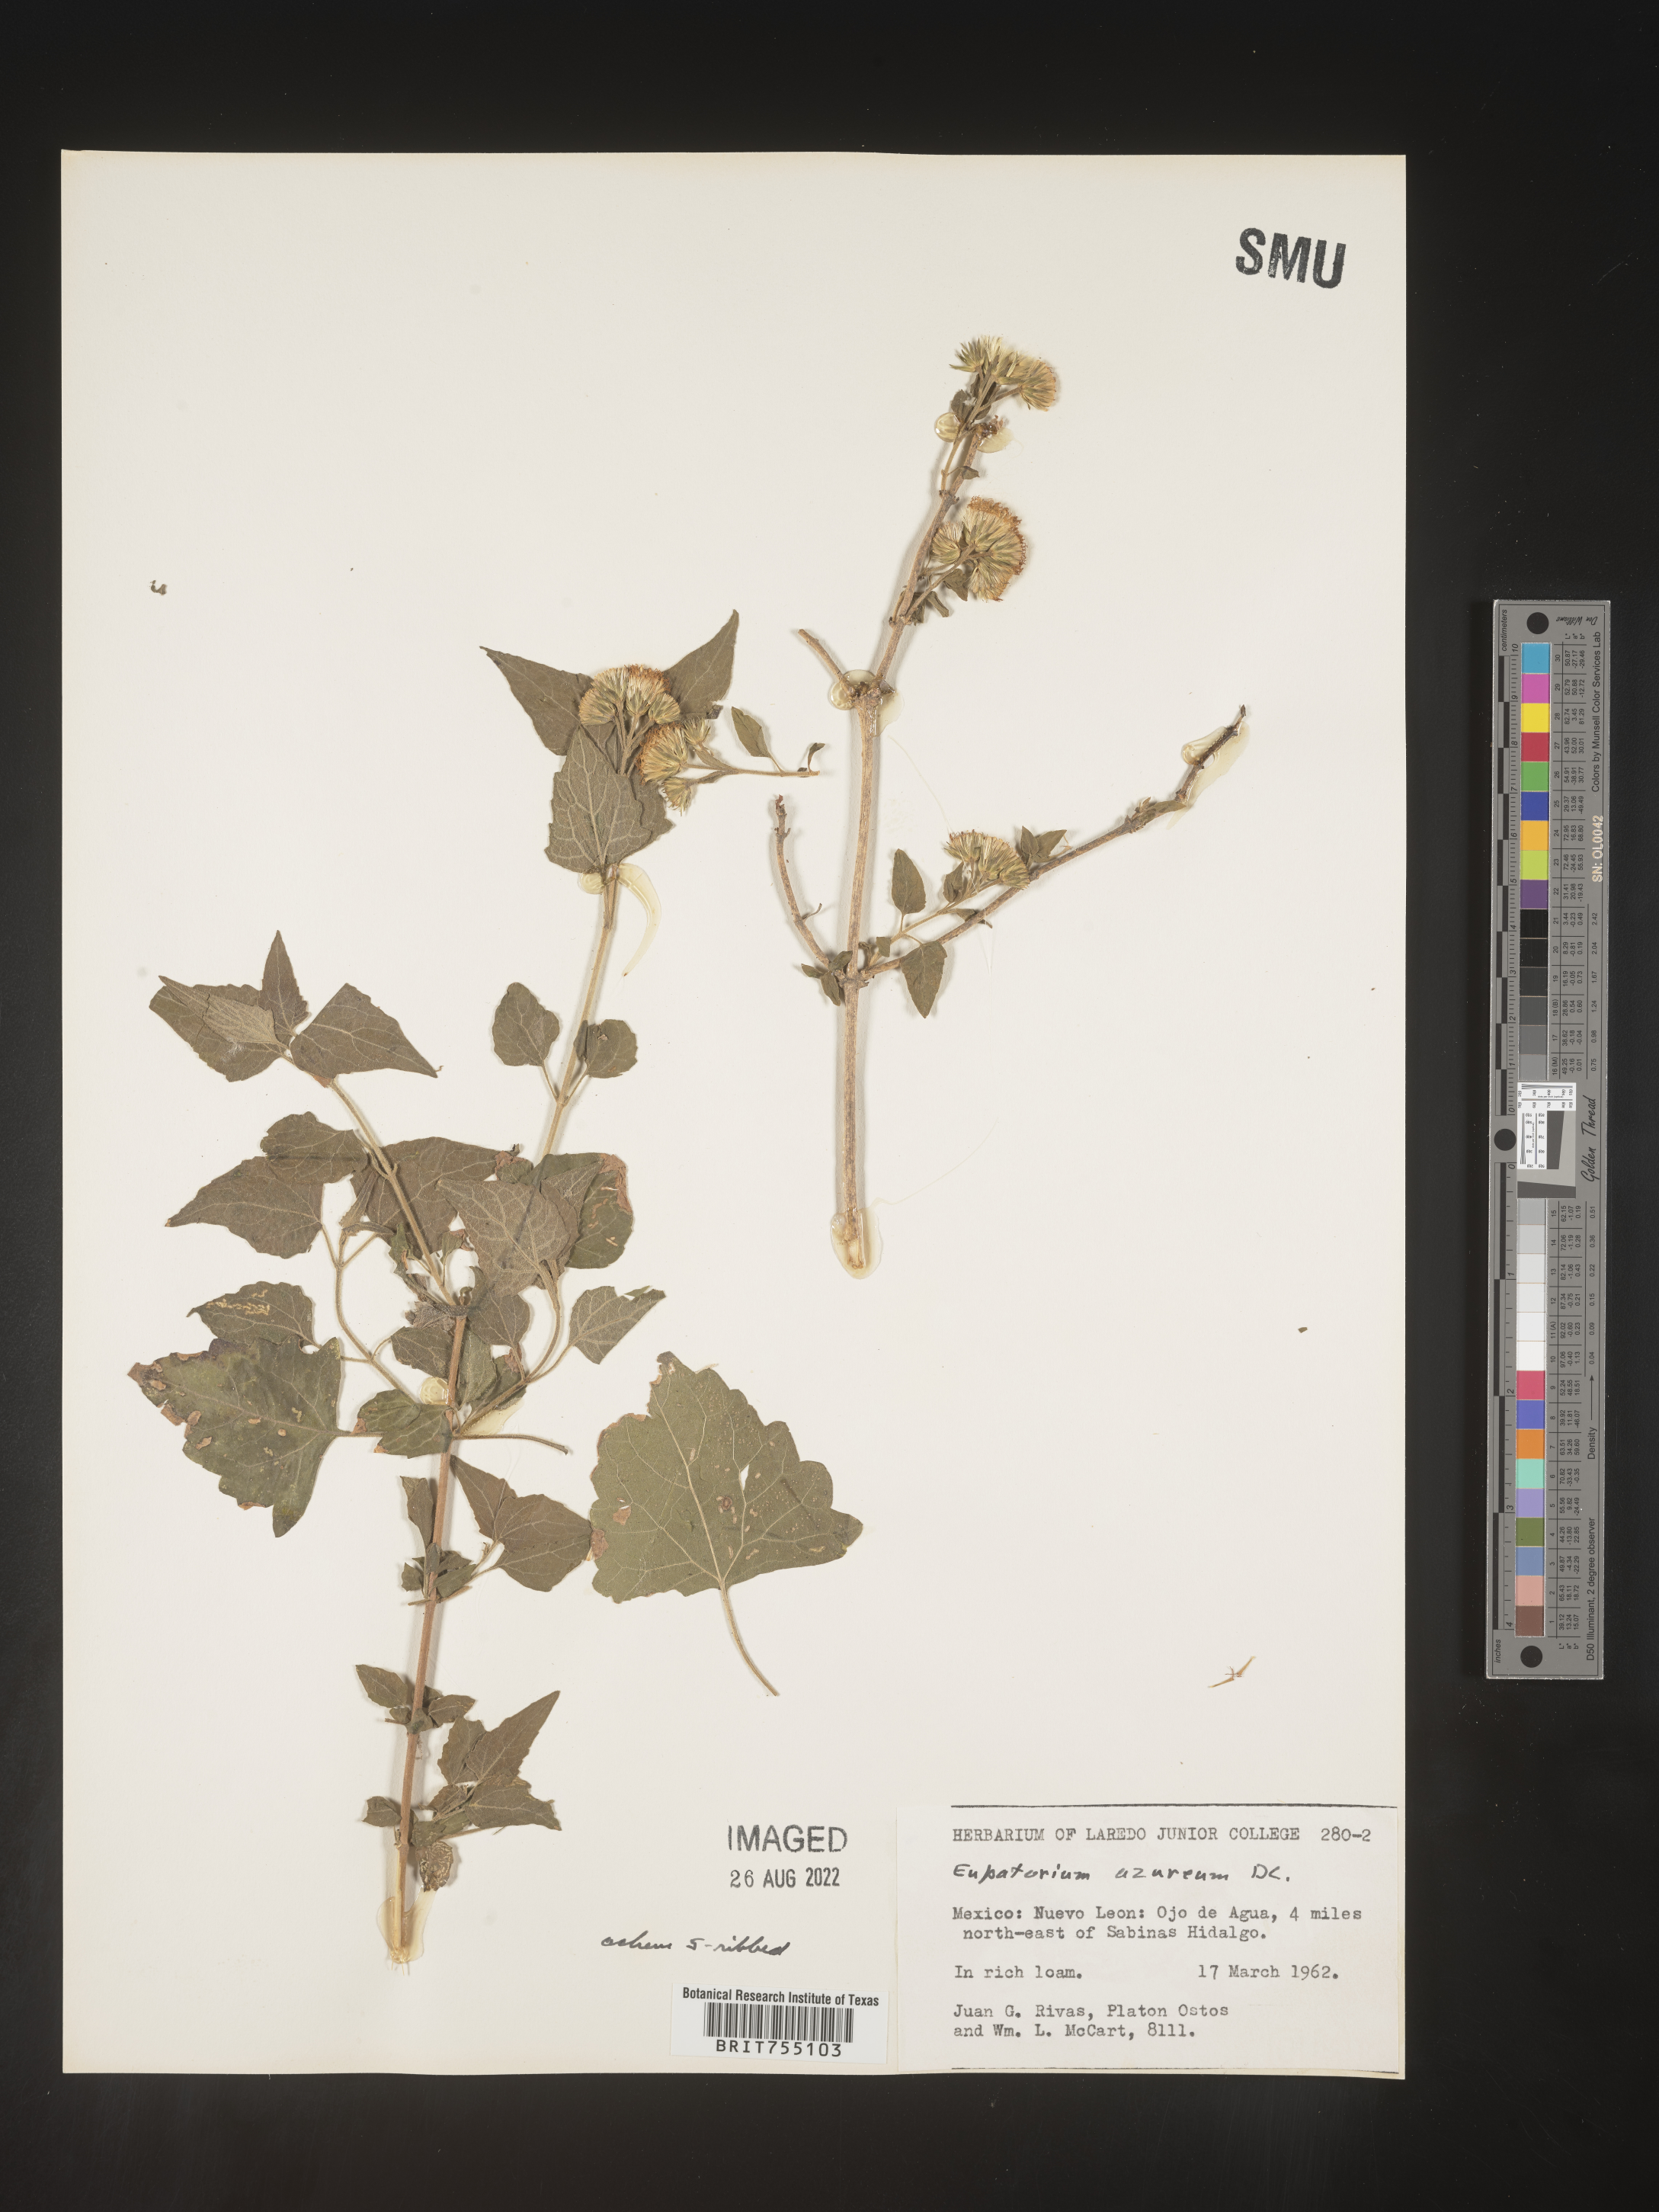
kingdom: Plantae
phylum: Tracheophyta
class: Magnoliopsida
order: Asterales
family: Asteraceae
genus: Tamaulipa
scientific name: Tamaulipa azurea
